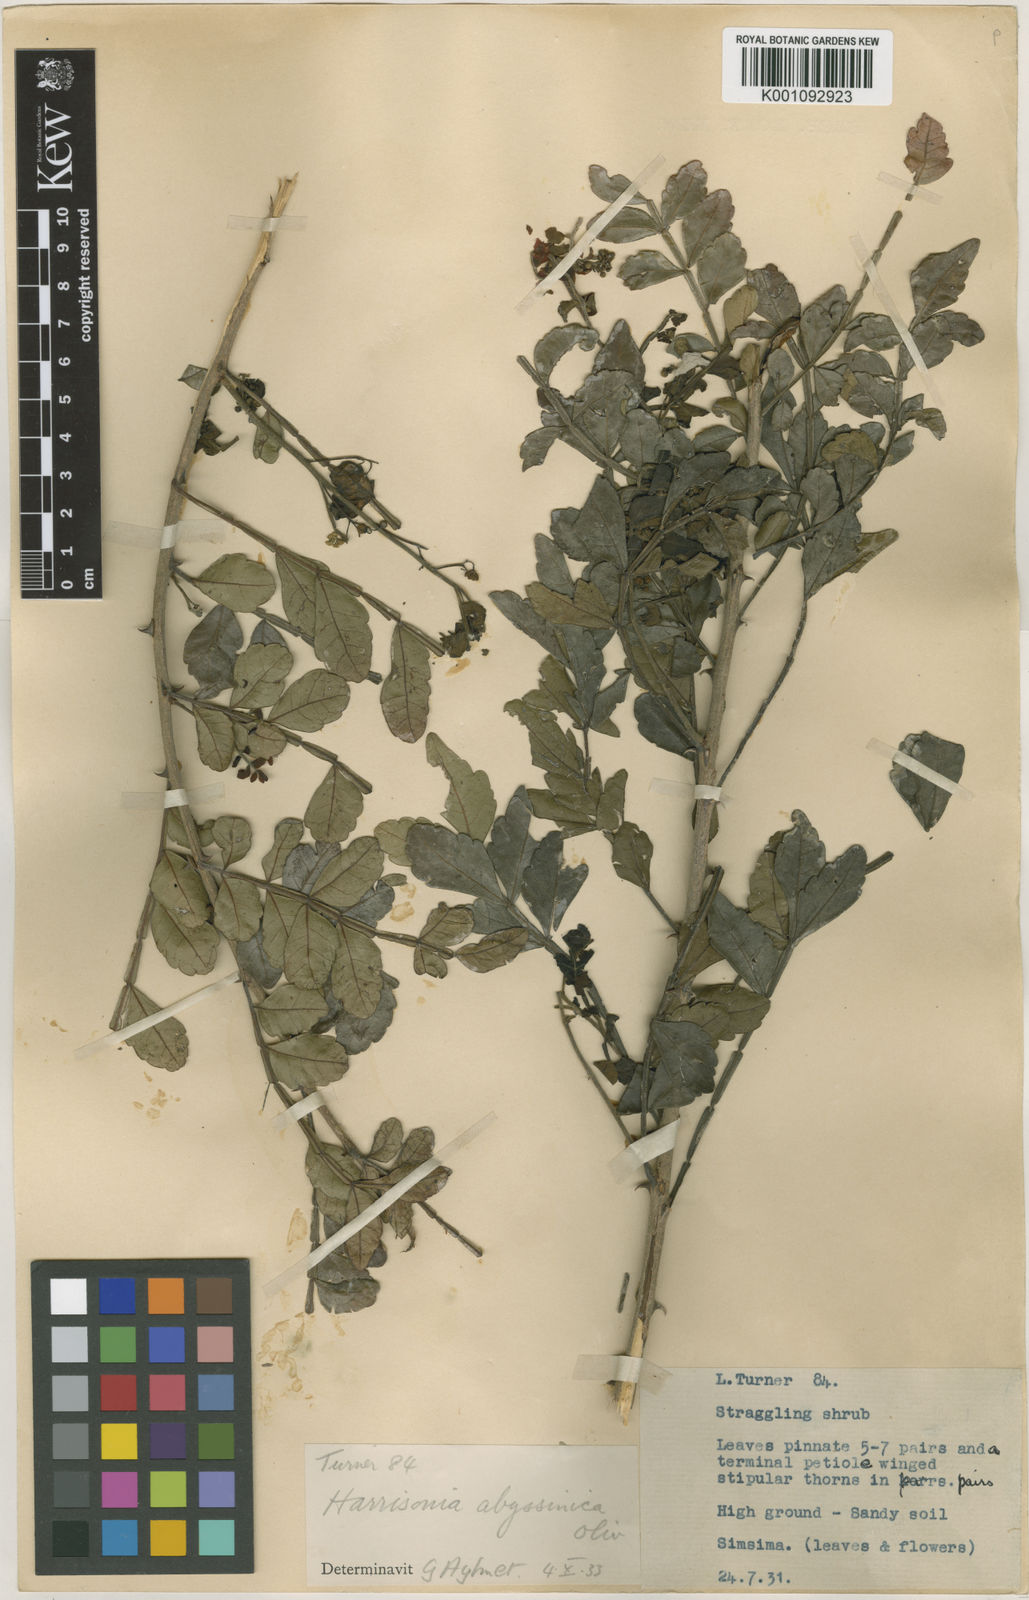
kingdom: Plantae
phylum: Tracheophyta
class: Magnoliopsida
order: Sapindales
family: Rutaceae
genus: Harrisonia
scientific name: Harrisonia abyssinica
